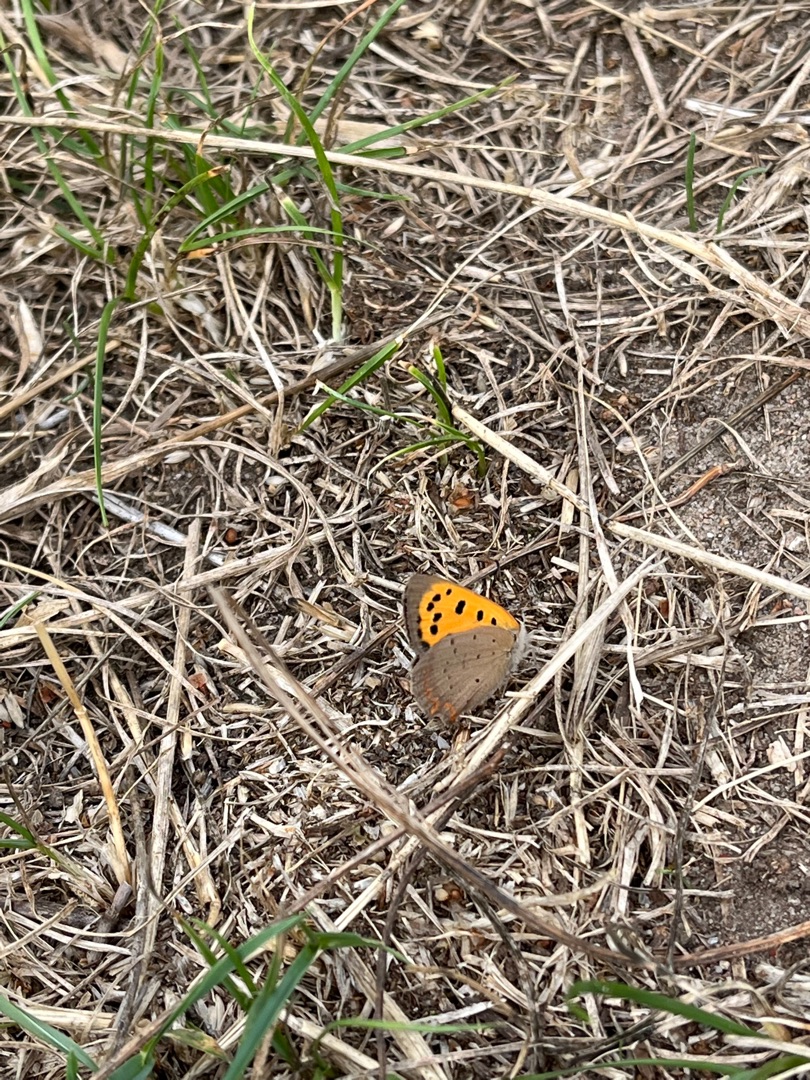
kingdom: Animalia
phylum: Arthropoda
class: Insecta
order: Lepidoptera
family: Lycaenidae
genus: Lycaena
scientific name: Lycaena phlaeas
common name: Lille ildfugl
